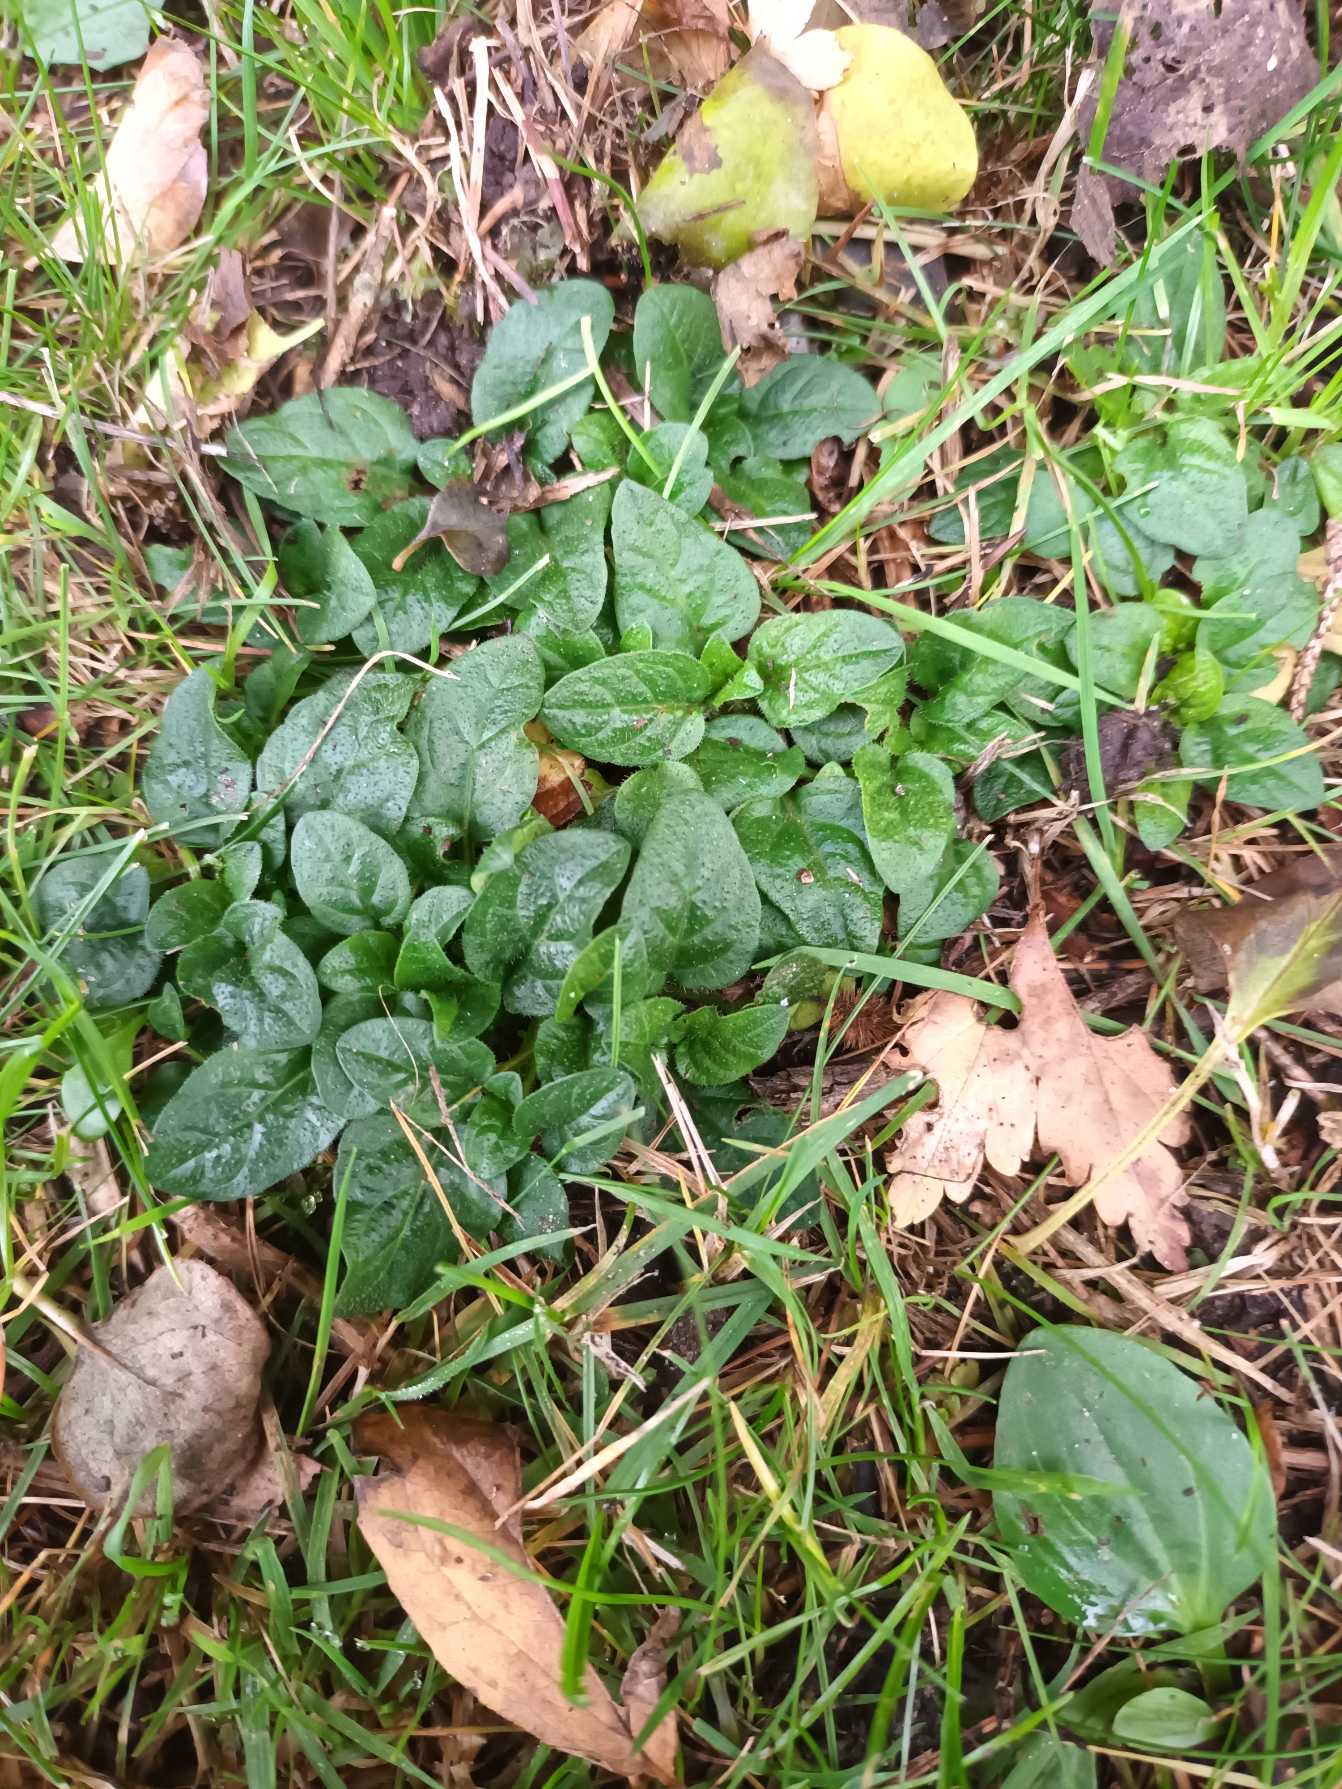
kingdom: Plantae
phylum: Tracheophyta
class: Magnoliopsida
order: Lamiales
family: Lamiaceae
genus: Prunella
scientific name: Prunella vulgaris
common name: Almindelig brunelle
